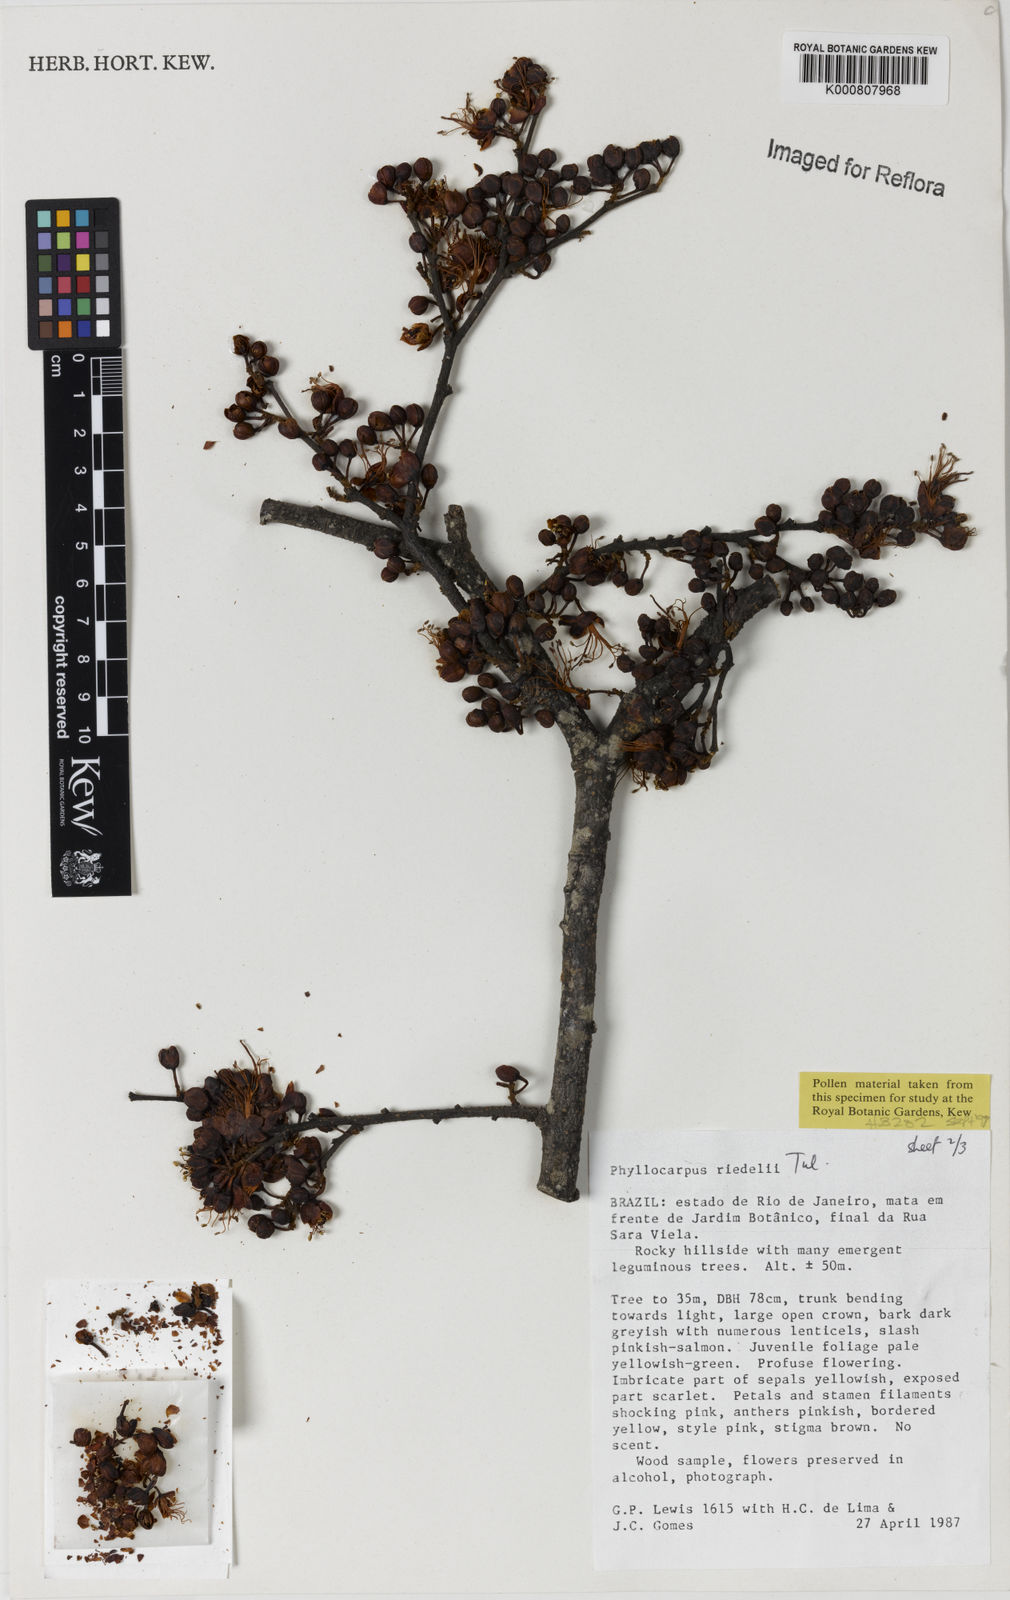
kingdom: Plantae
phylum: Tracheophyta
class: Magnoliopsida
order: Fabales
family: Fabaceae
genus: Barnebydendron
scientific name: Barnebydendron riedelii
